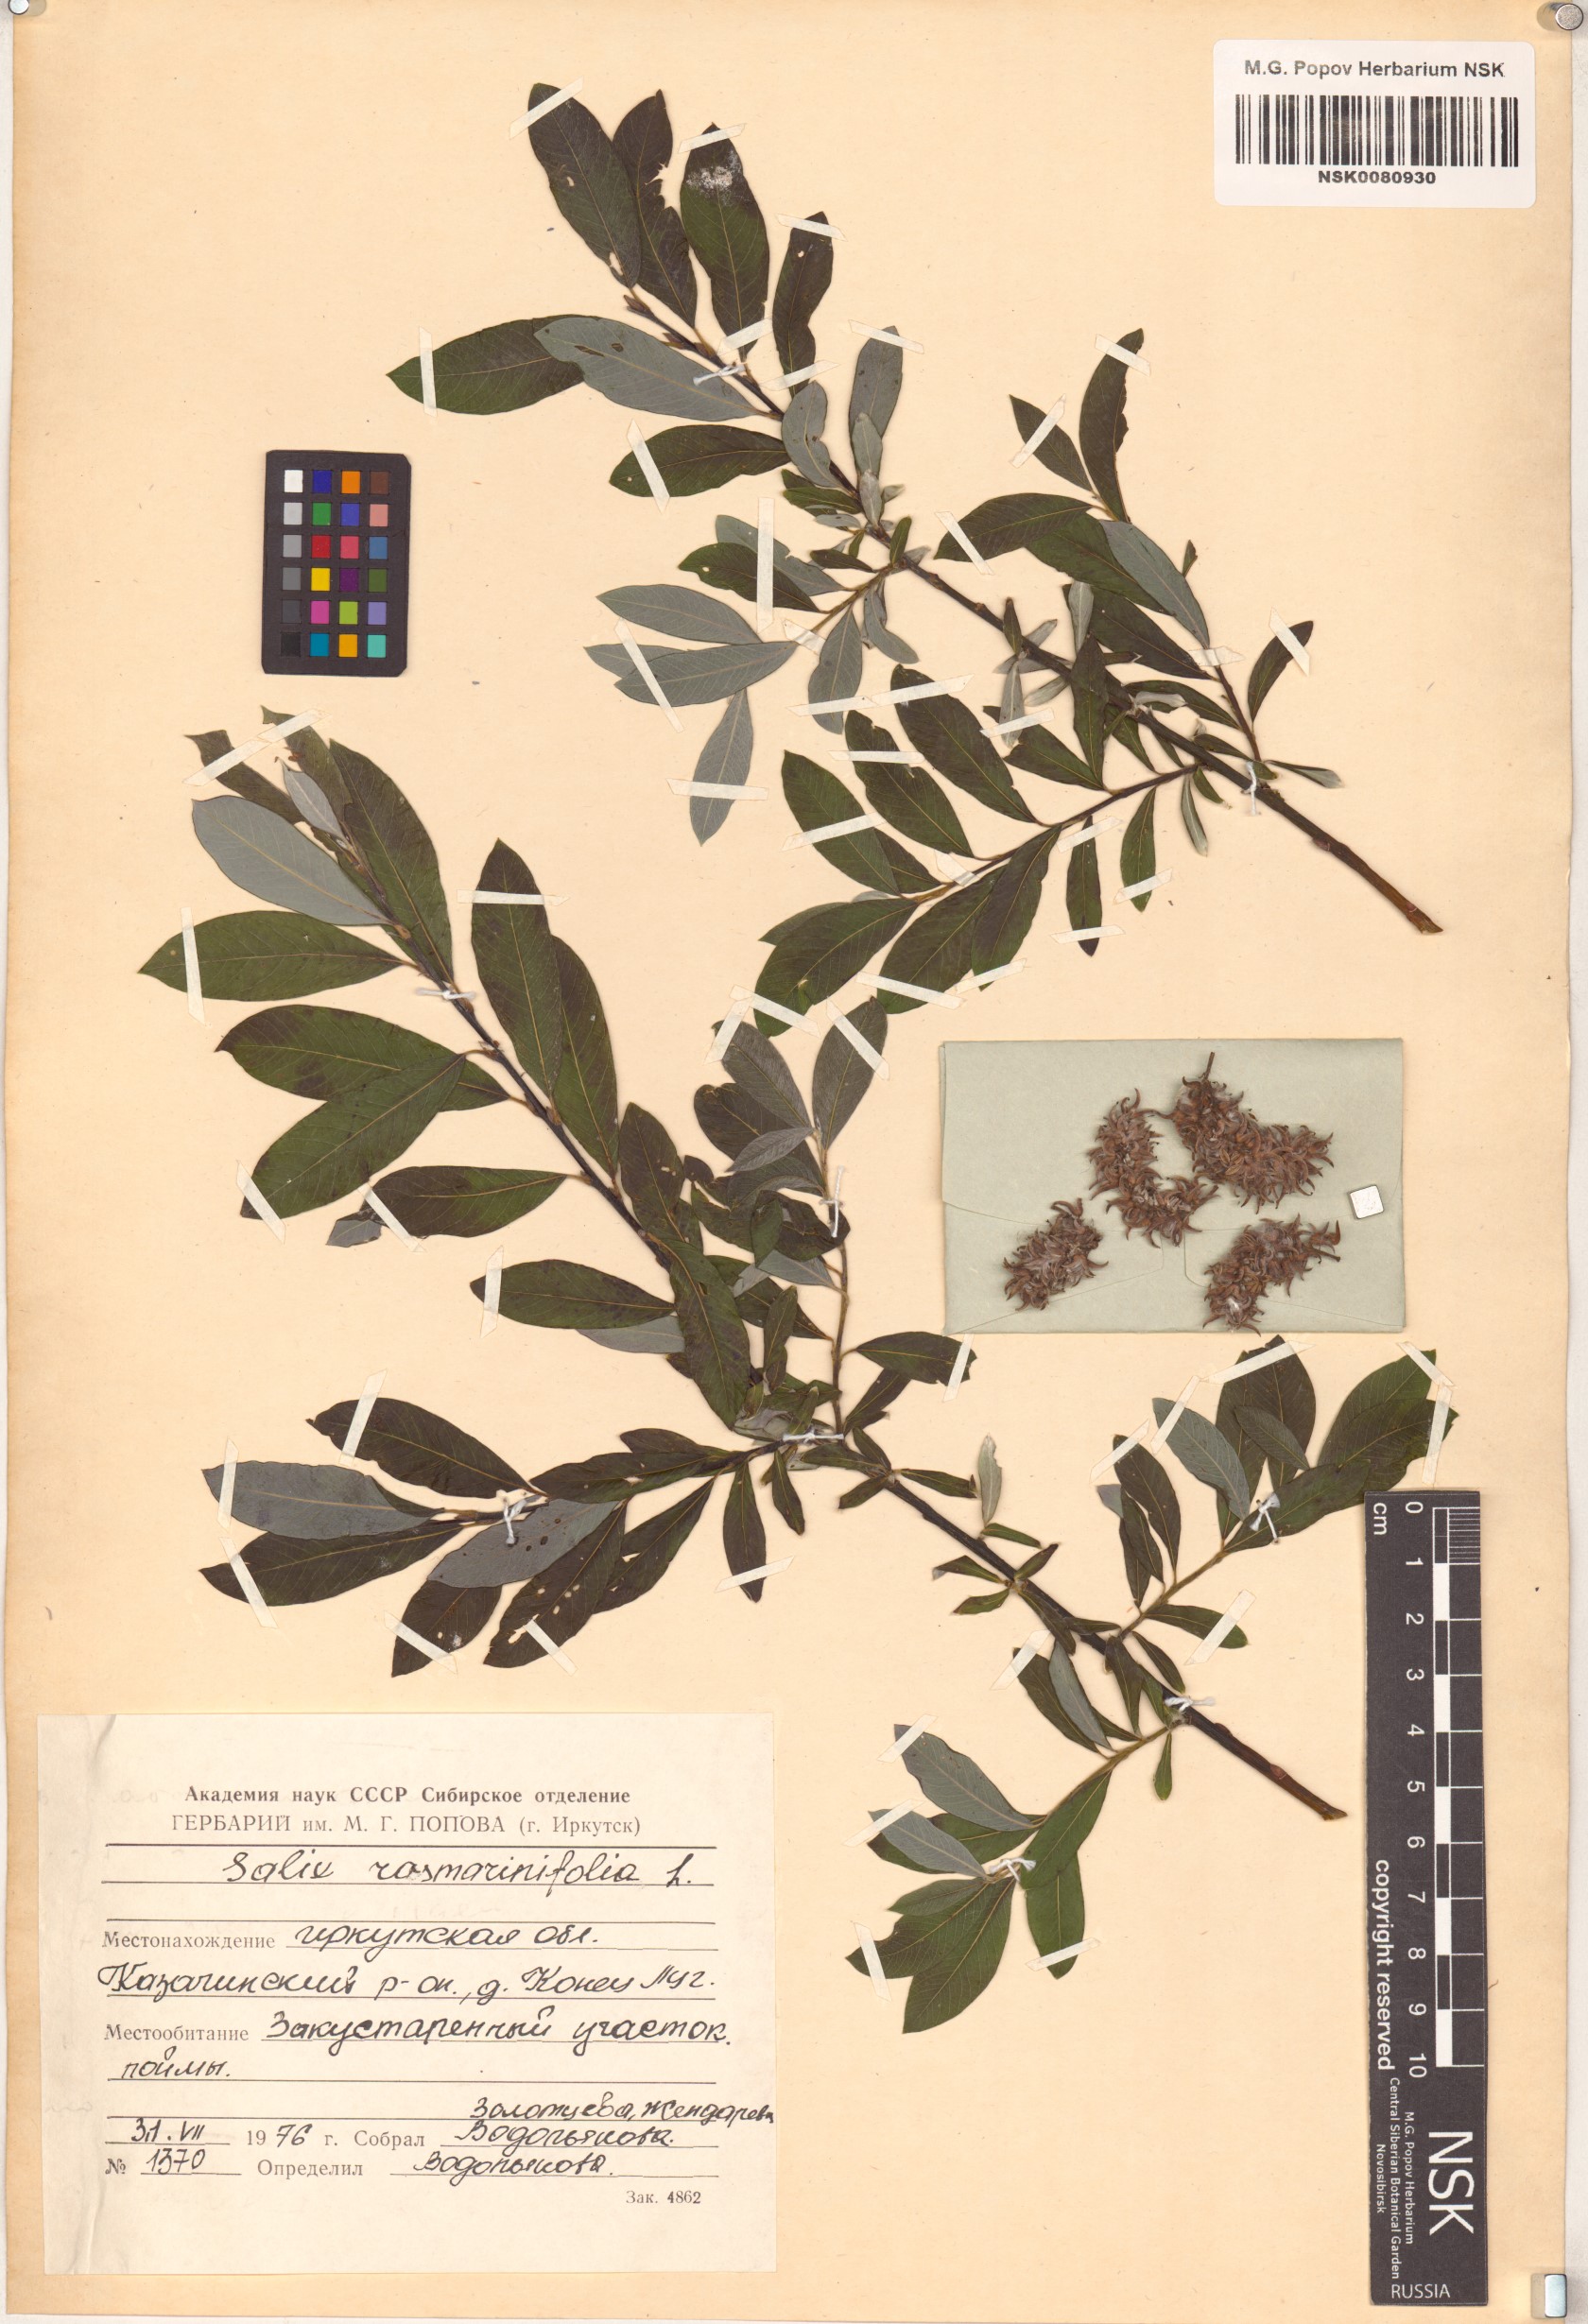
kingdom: Plantae
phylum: Tracheophyta
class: Magnoliopsida
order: Malpighiales
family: Salicaceae
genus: Salix
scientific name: Salix rosmarinifolia
